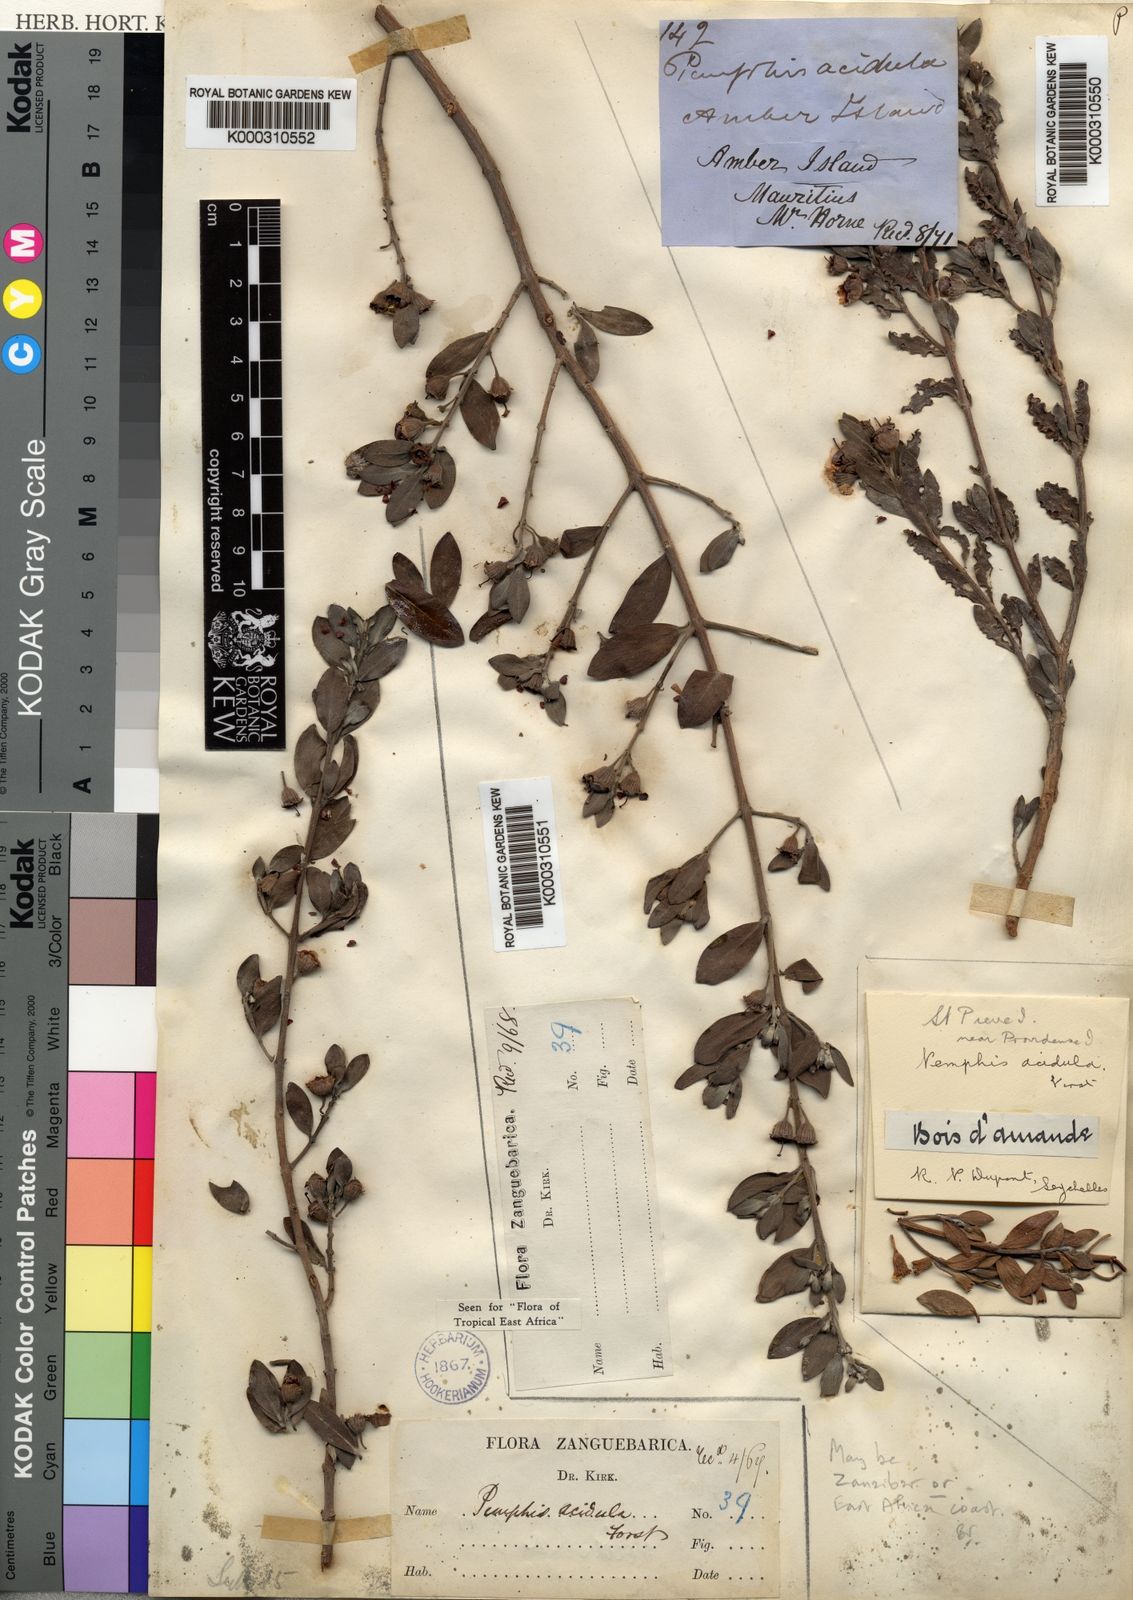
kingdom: Plantae
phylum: Tracheophyta
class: Magnoliopsida
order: Myrtales
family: Lythraceae
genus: Pemphis
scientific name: Pemphis acidula
